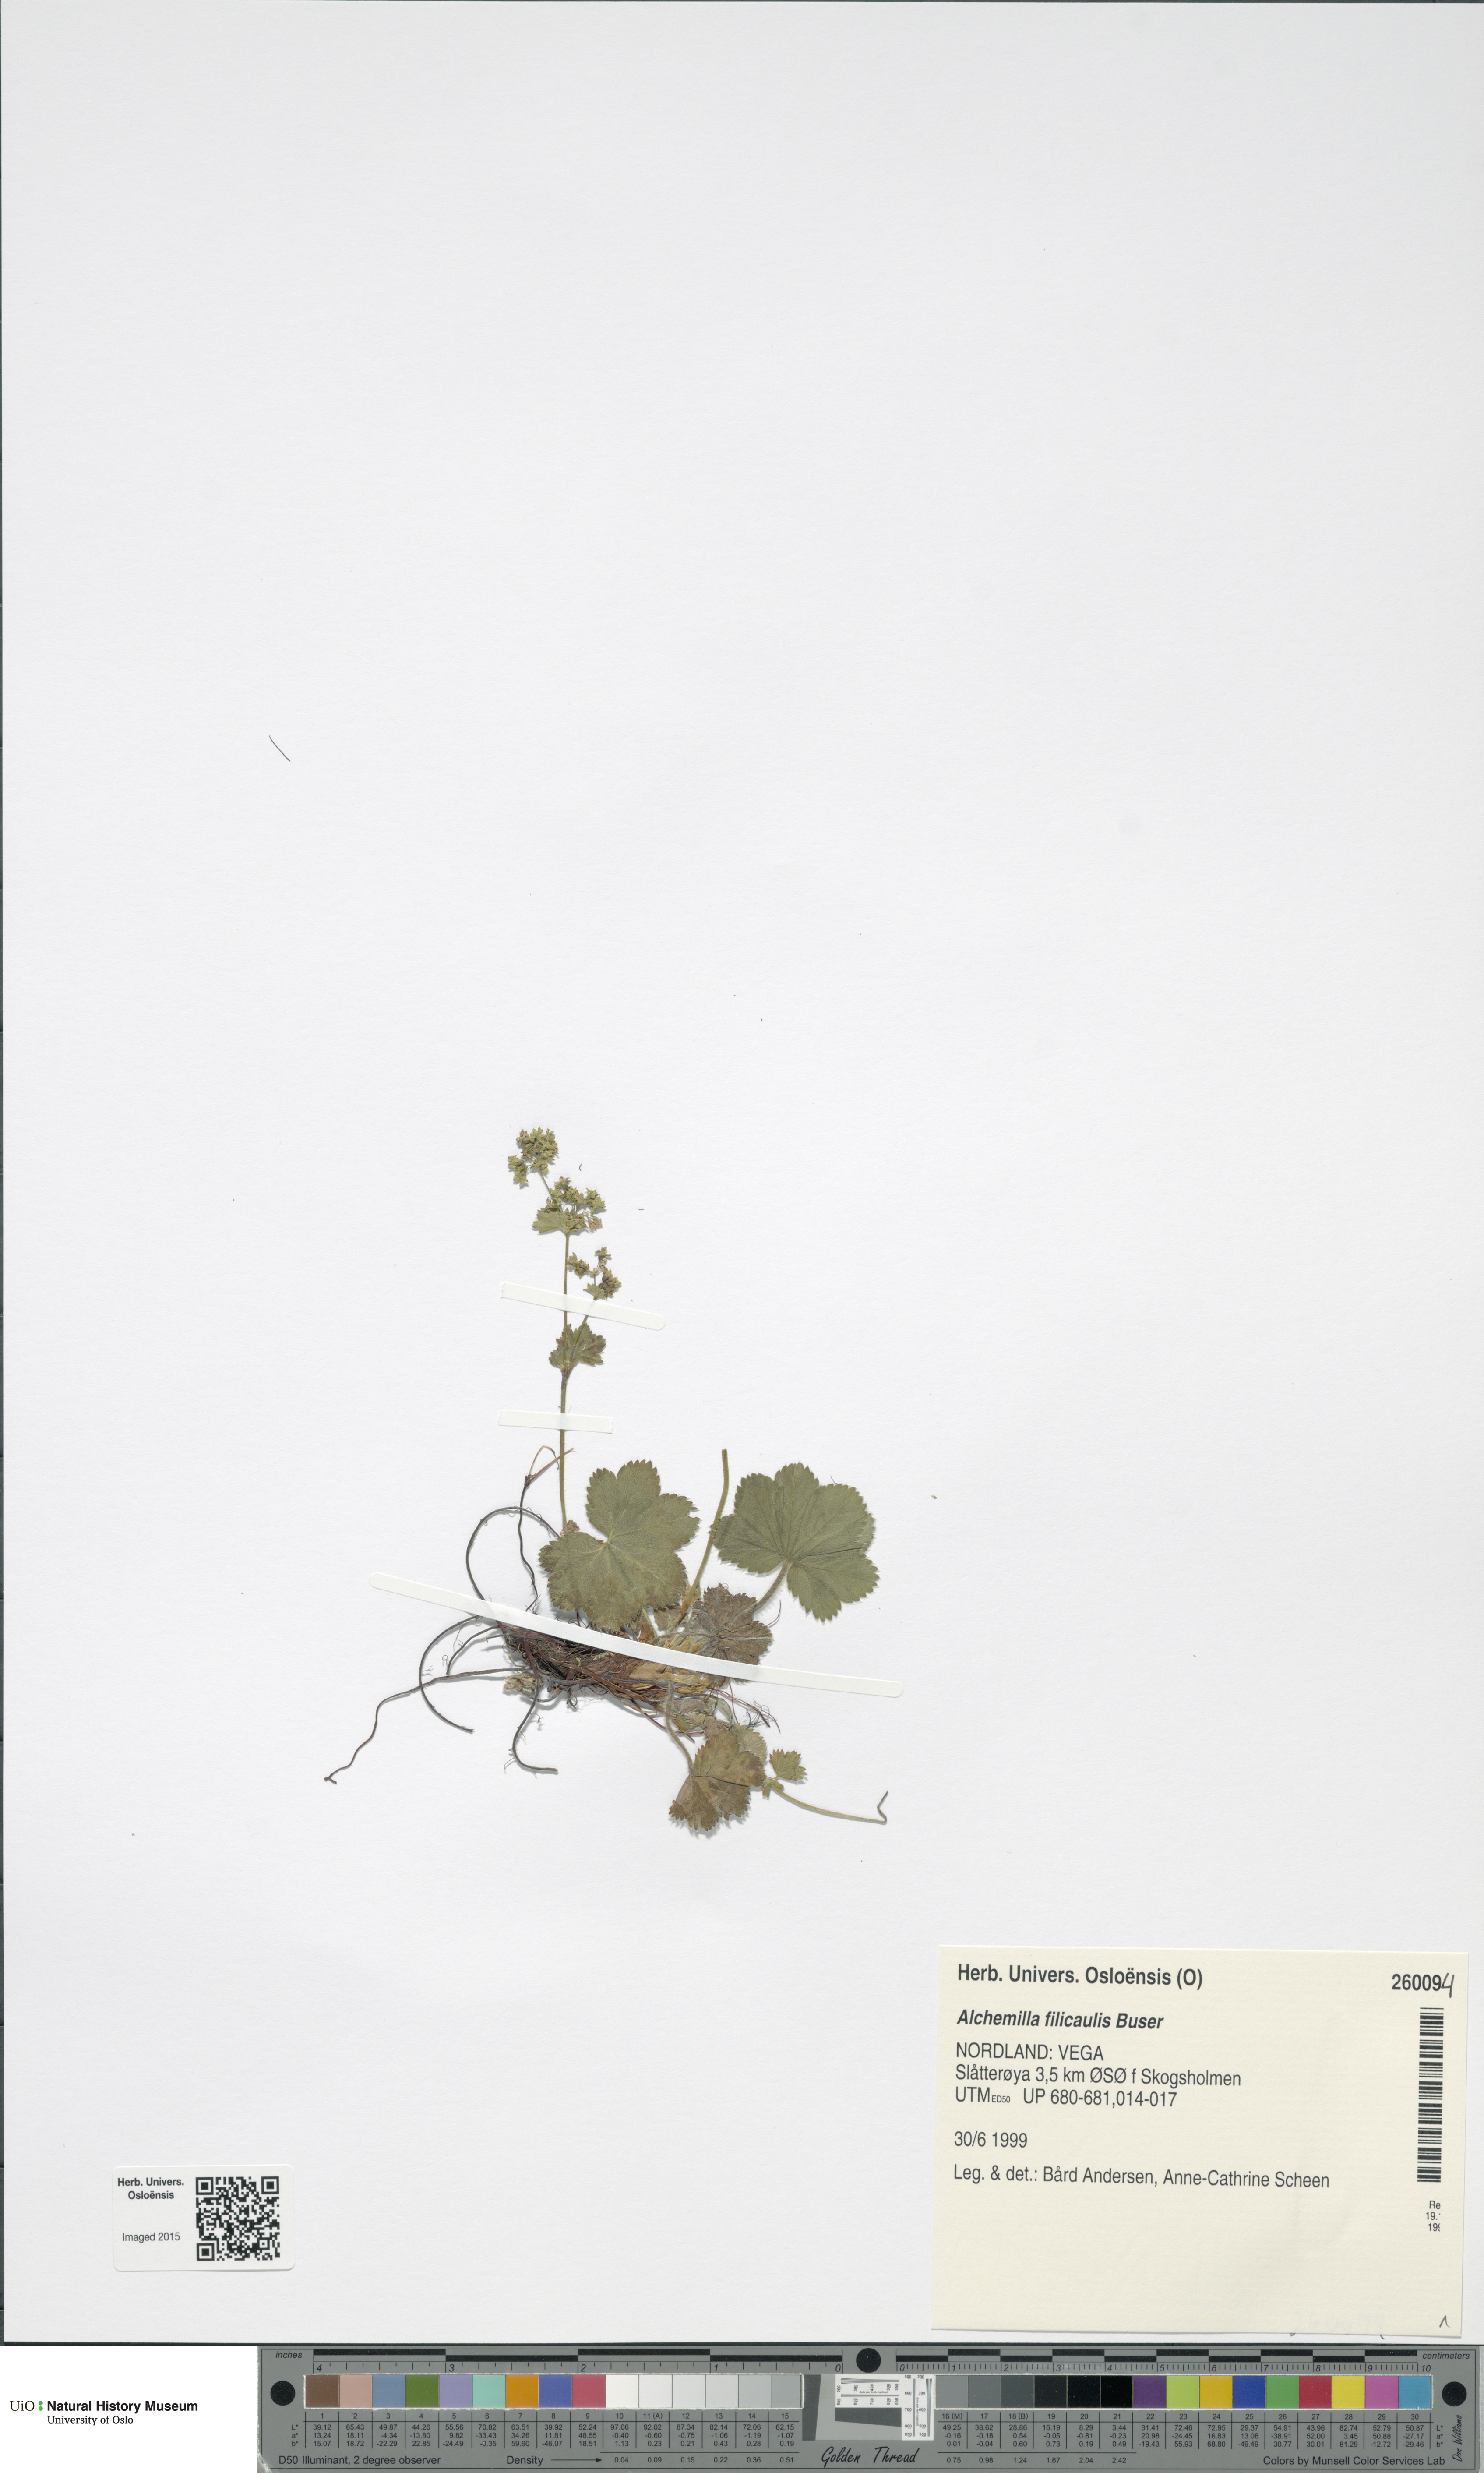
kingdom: Plantae
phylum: Tracheophyta
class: Magnoliopsida
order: Rosales
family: Rosaceae
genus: Alchemilla
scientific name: Alchemilla filicaulis
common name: Hairy lady's-mantle
